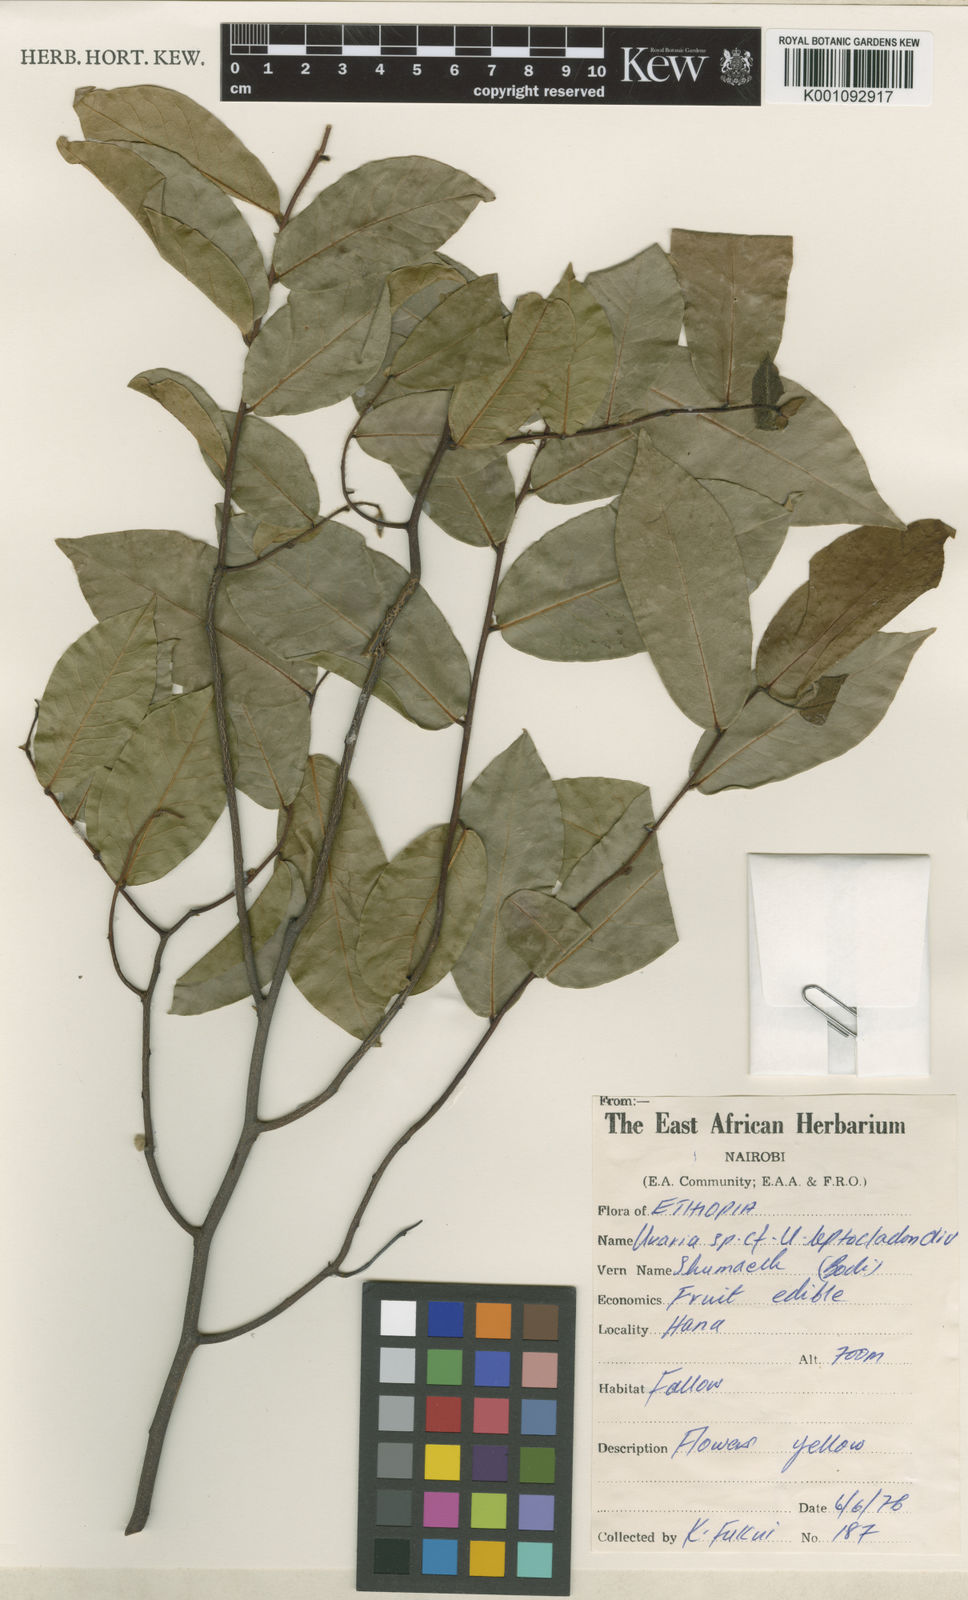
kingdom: Plantae
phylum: Tracheophyta
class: Magnoliopsida
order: Magnoliales
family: Annonaceae
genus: Uvaria
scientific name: Uvaria leptocladon
